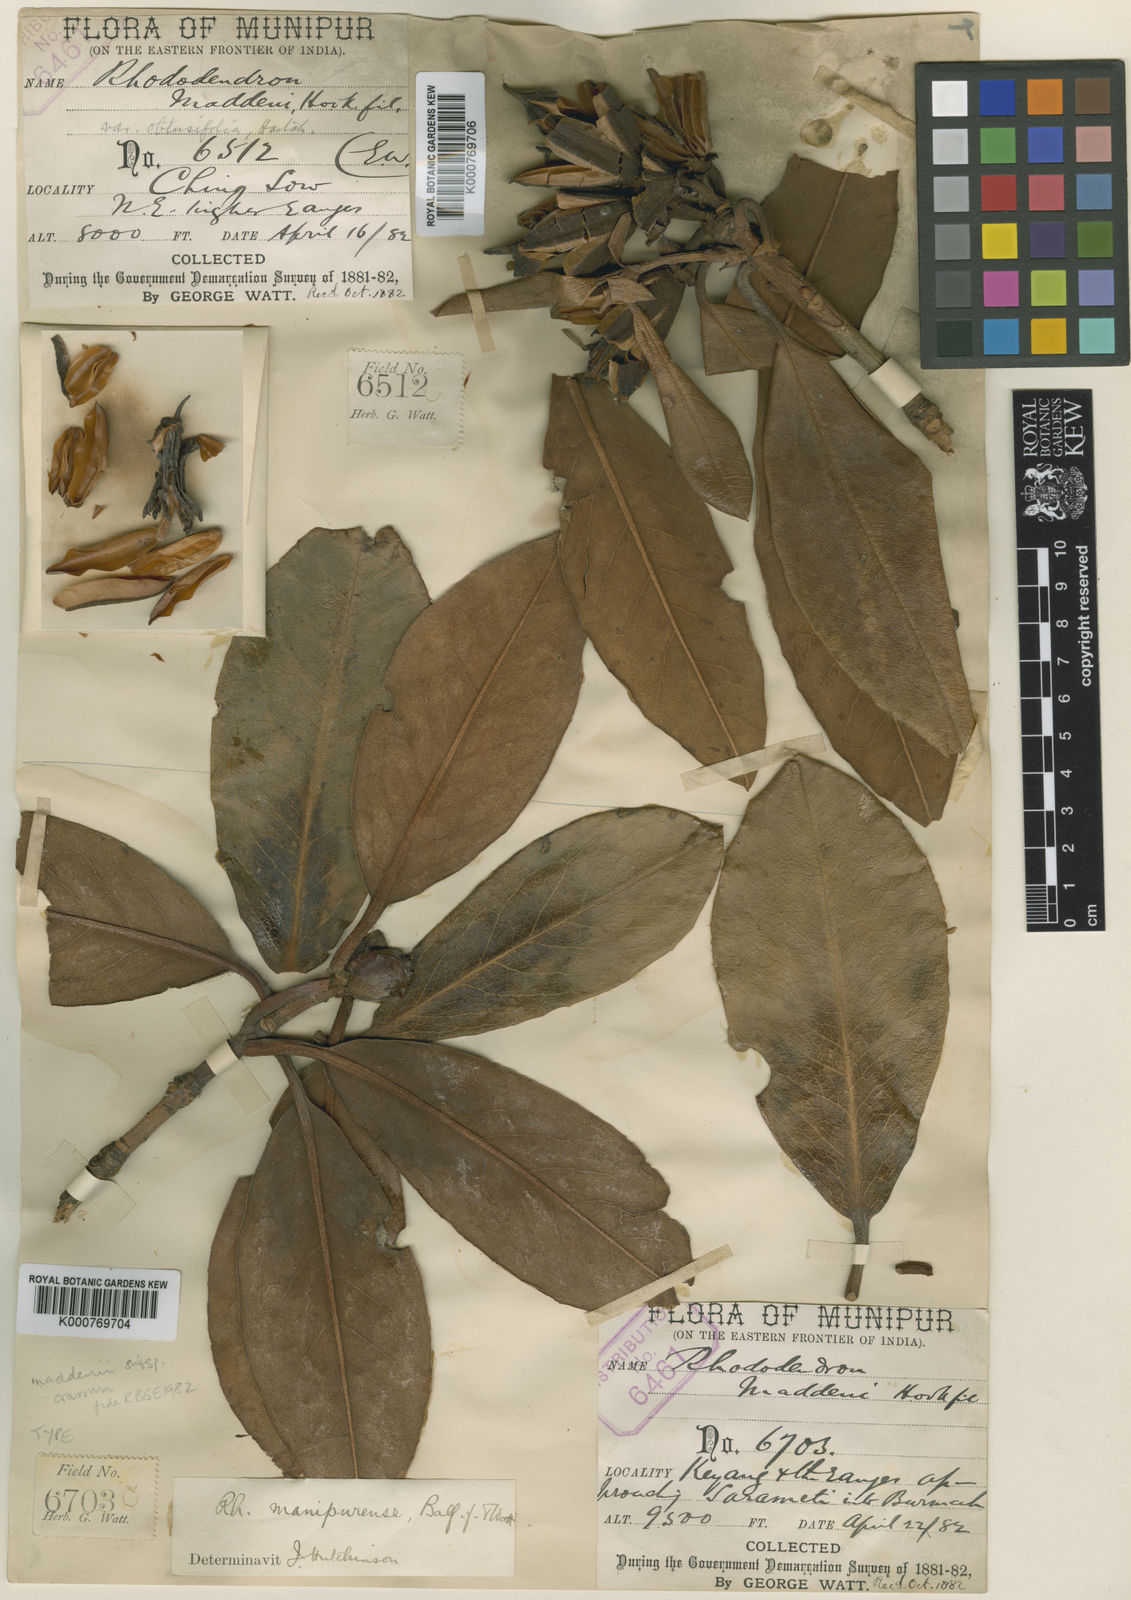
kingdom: Plantae
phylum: Tracheophyta
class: Magnoliopsida
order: Ericales
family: Ericaceae
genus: Rhododendron
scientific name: Rhododendron crassum
